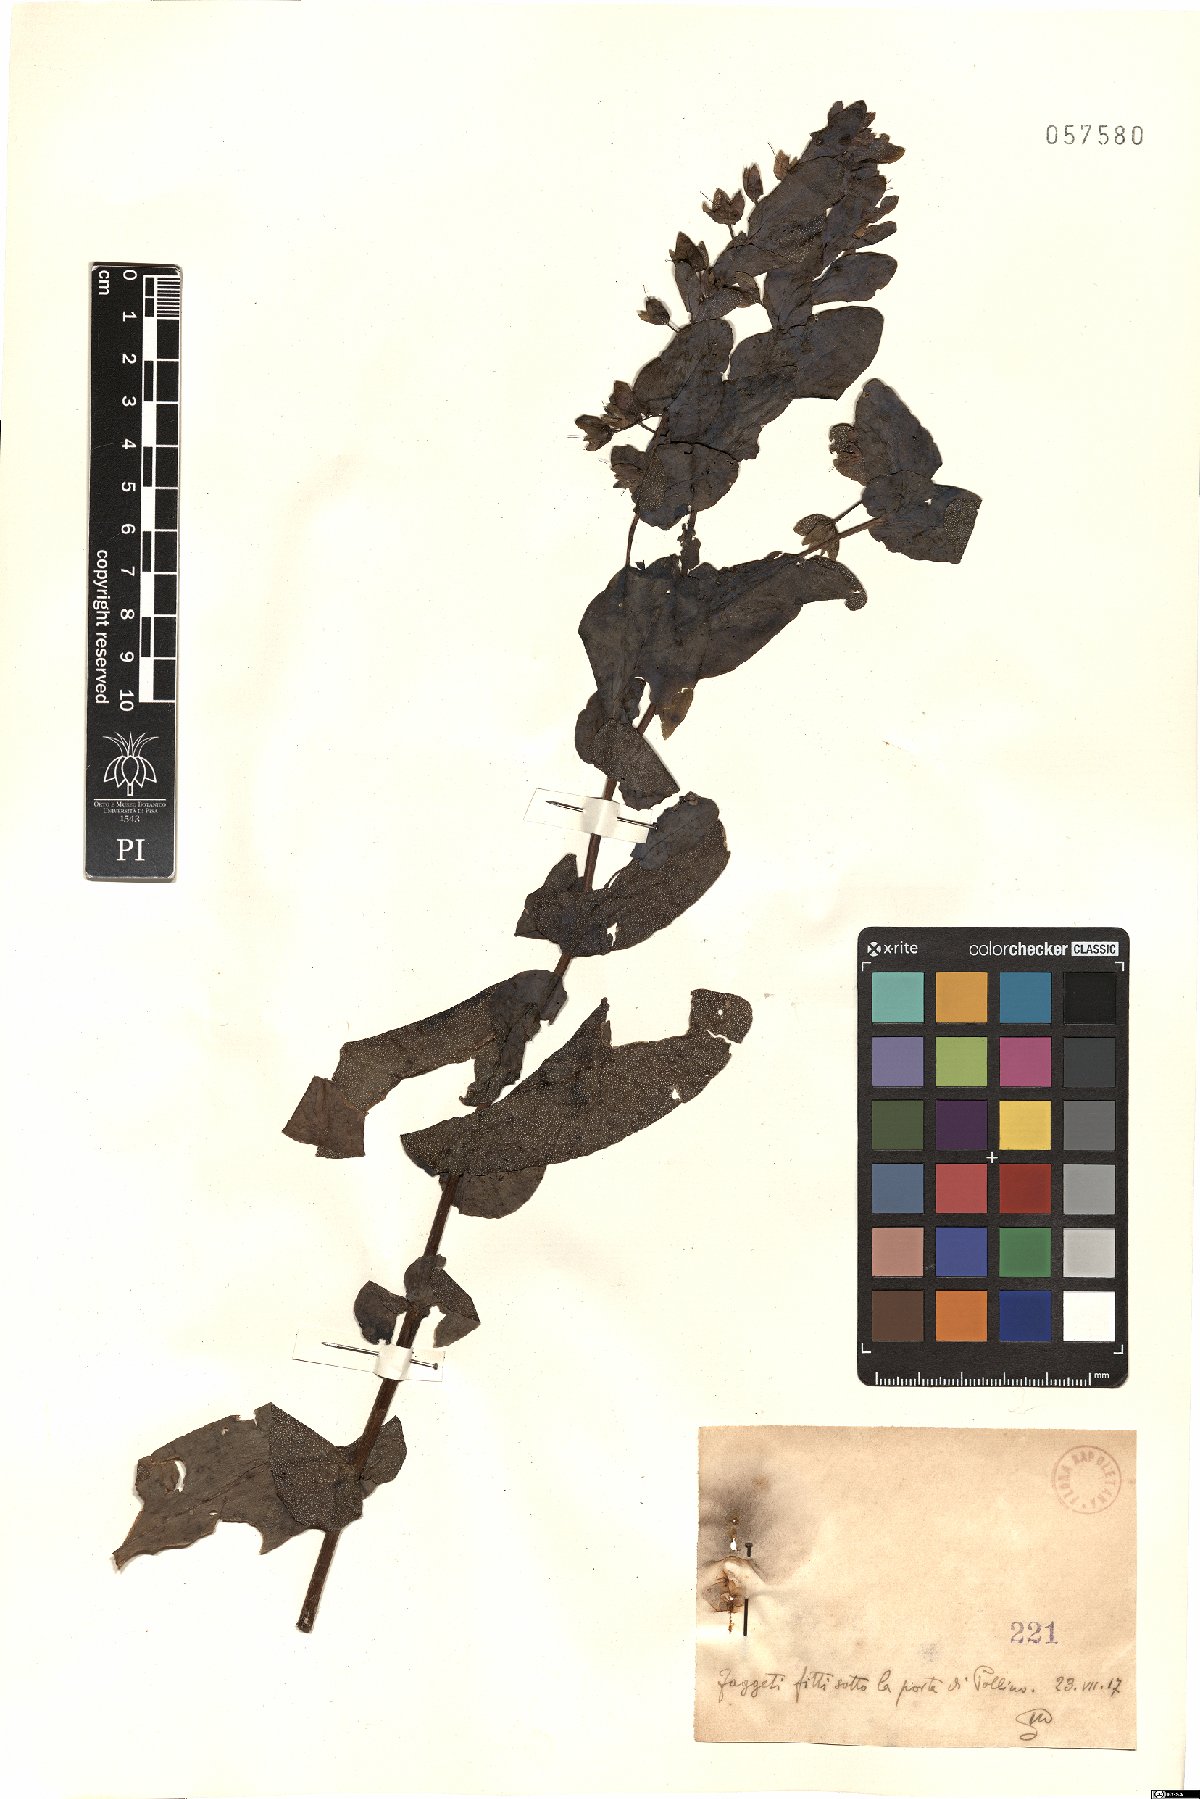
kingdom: Plantae
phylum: Tracheophyta
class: Magnoliopsida
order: Boraginales
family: Boraginaceae
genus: Cerinthe
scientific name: Cerinthe
